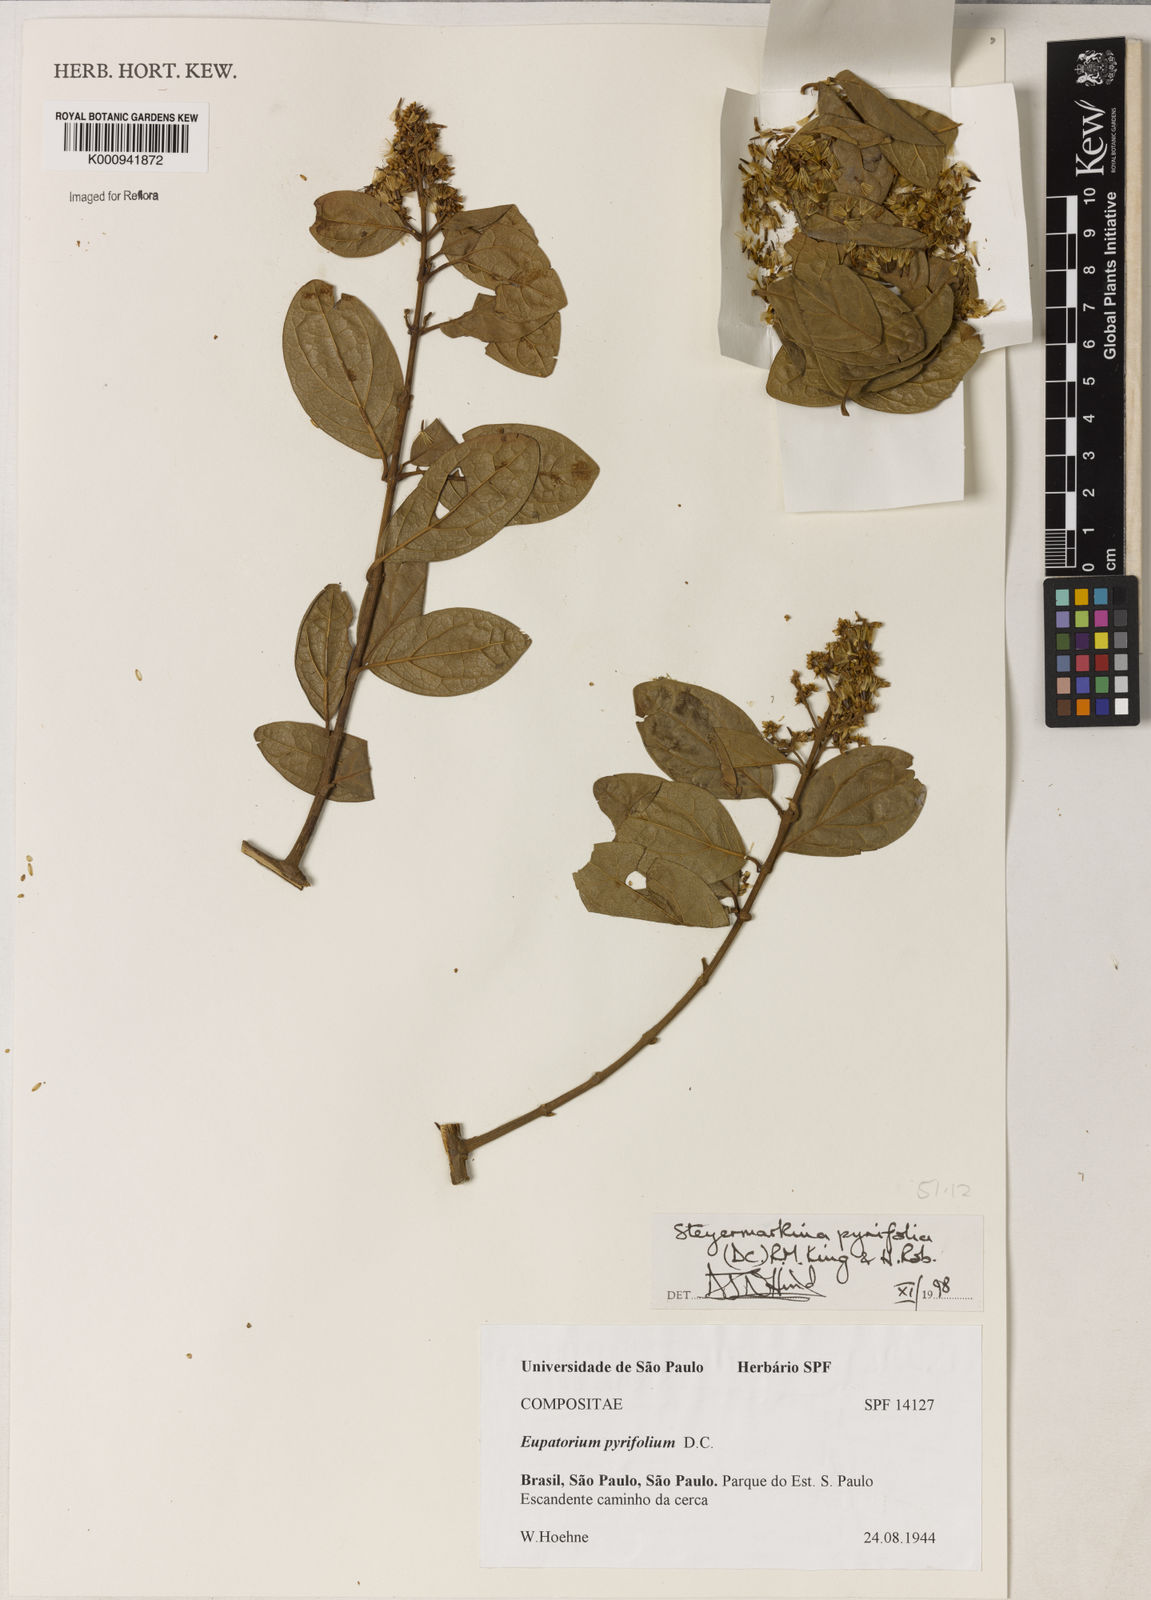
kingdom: Plantae
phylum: Tracheophyta
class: Magnoliopsida
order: Asterales
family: Asteraceae
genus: Steyermarkina
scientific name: Steyermarkina pyrifolia
